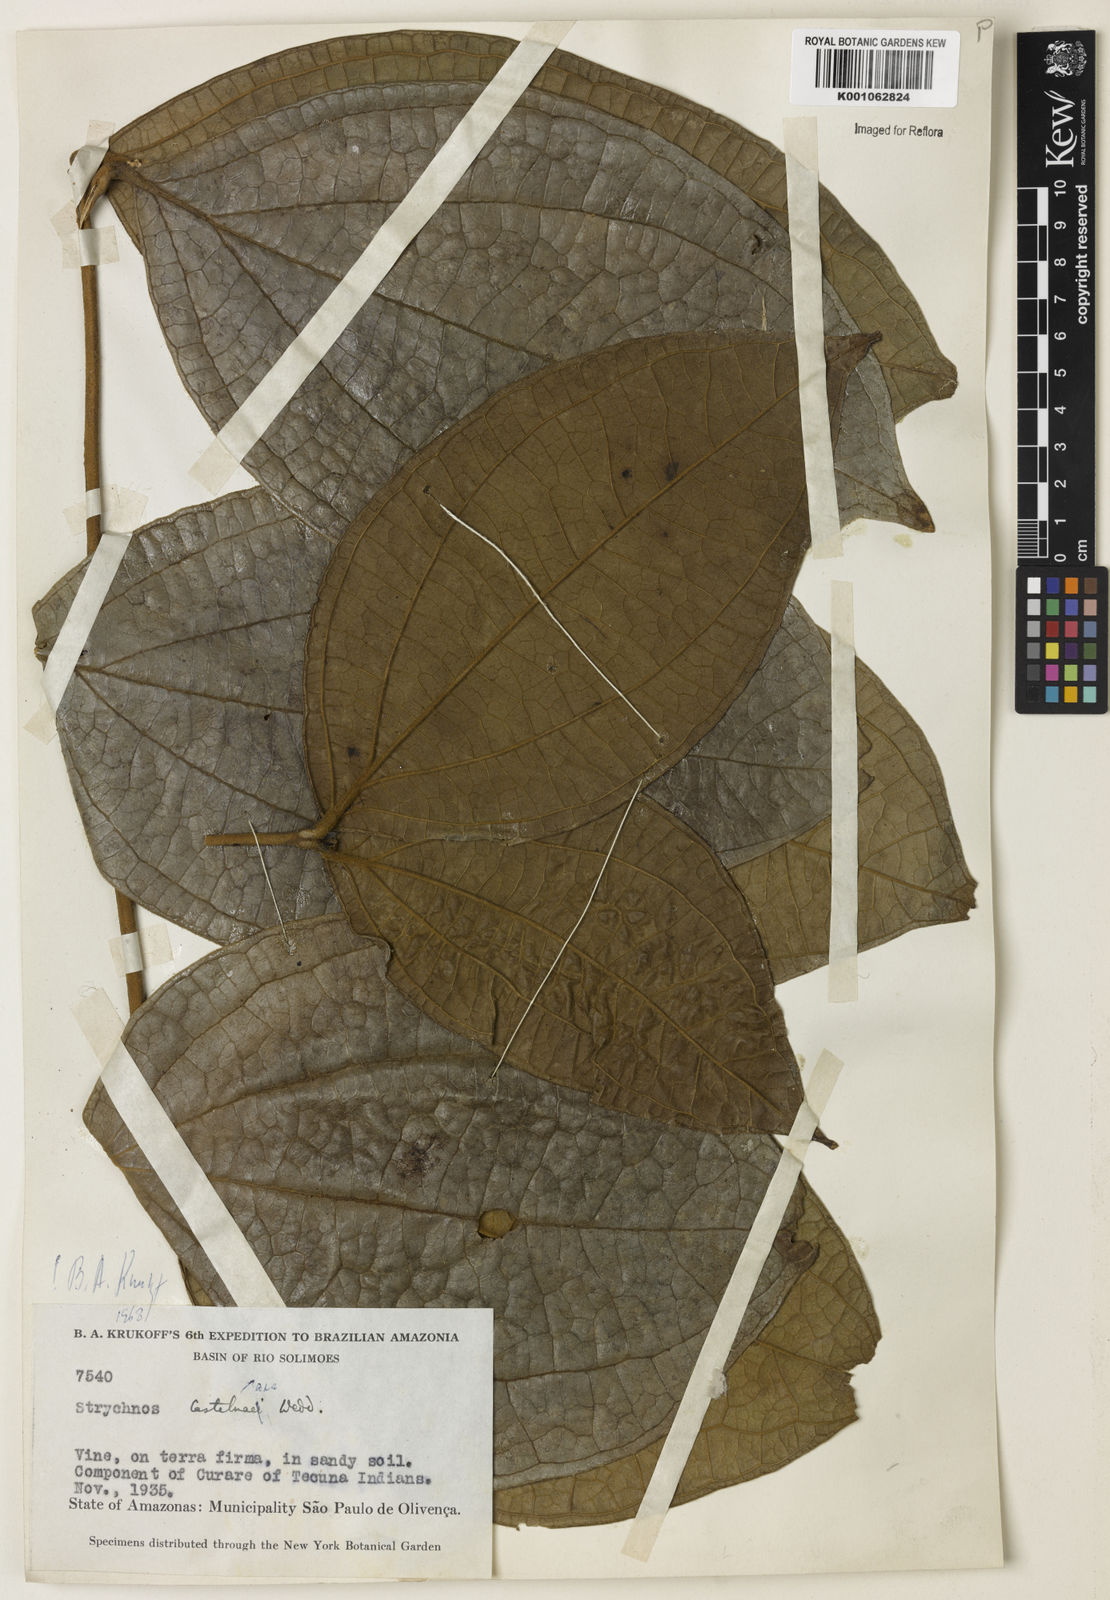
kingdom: Plantae
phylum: Tracheophyta
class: Magnoliopsida
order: Gentianales
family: Loganiaceae
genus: Strychnos
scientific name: Strychnos
